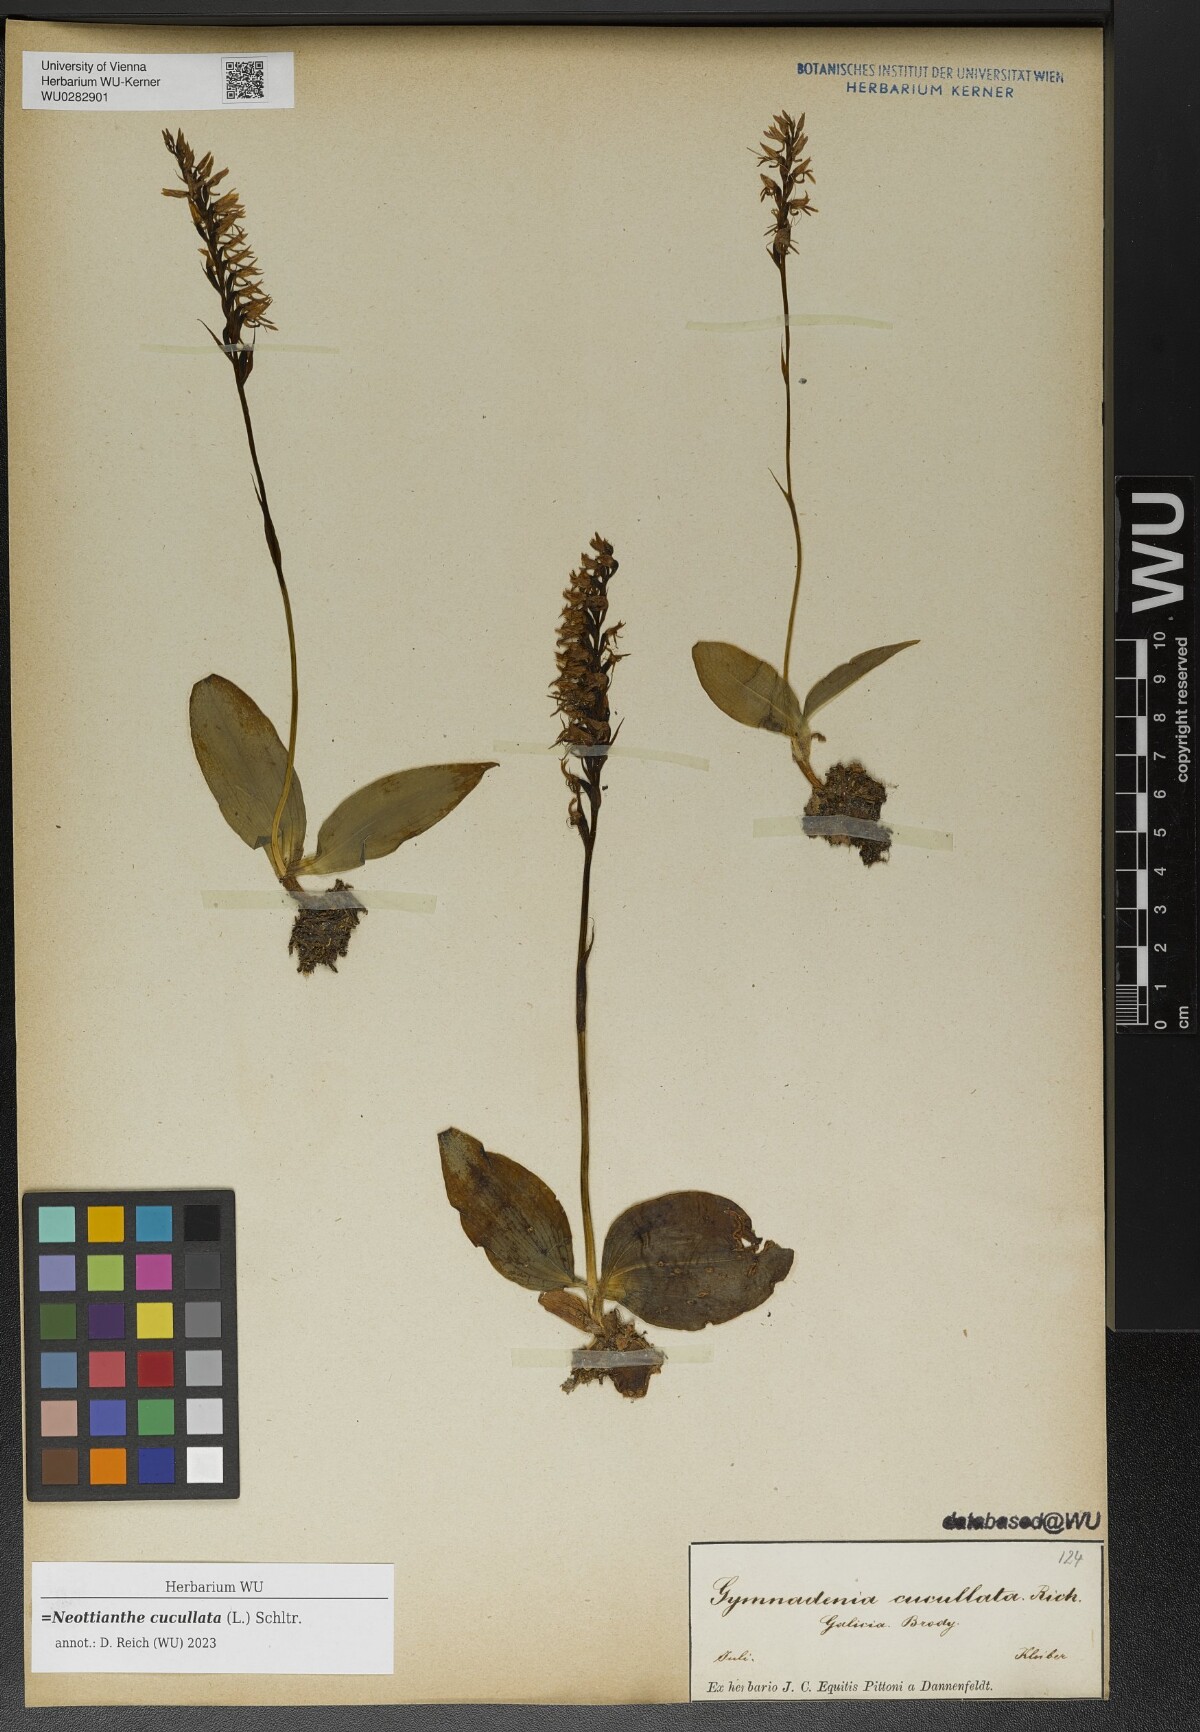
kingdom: Plantae
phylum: Tracheophyta
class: Liliopsida
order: Asparagales
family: Orchidaceae
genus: Hemipilia
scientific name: Hemipilia cucullata
